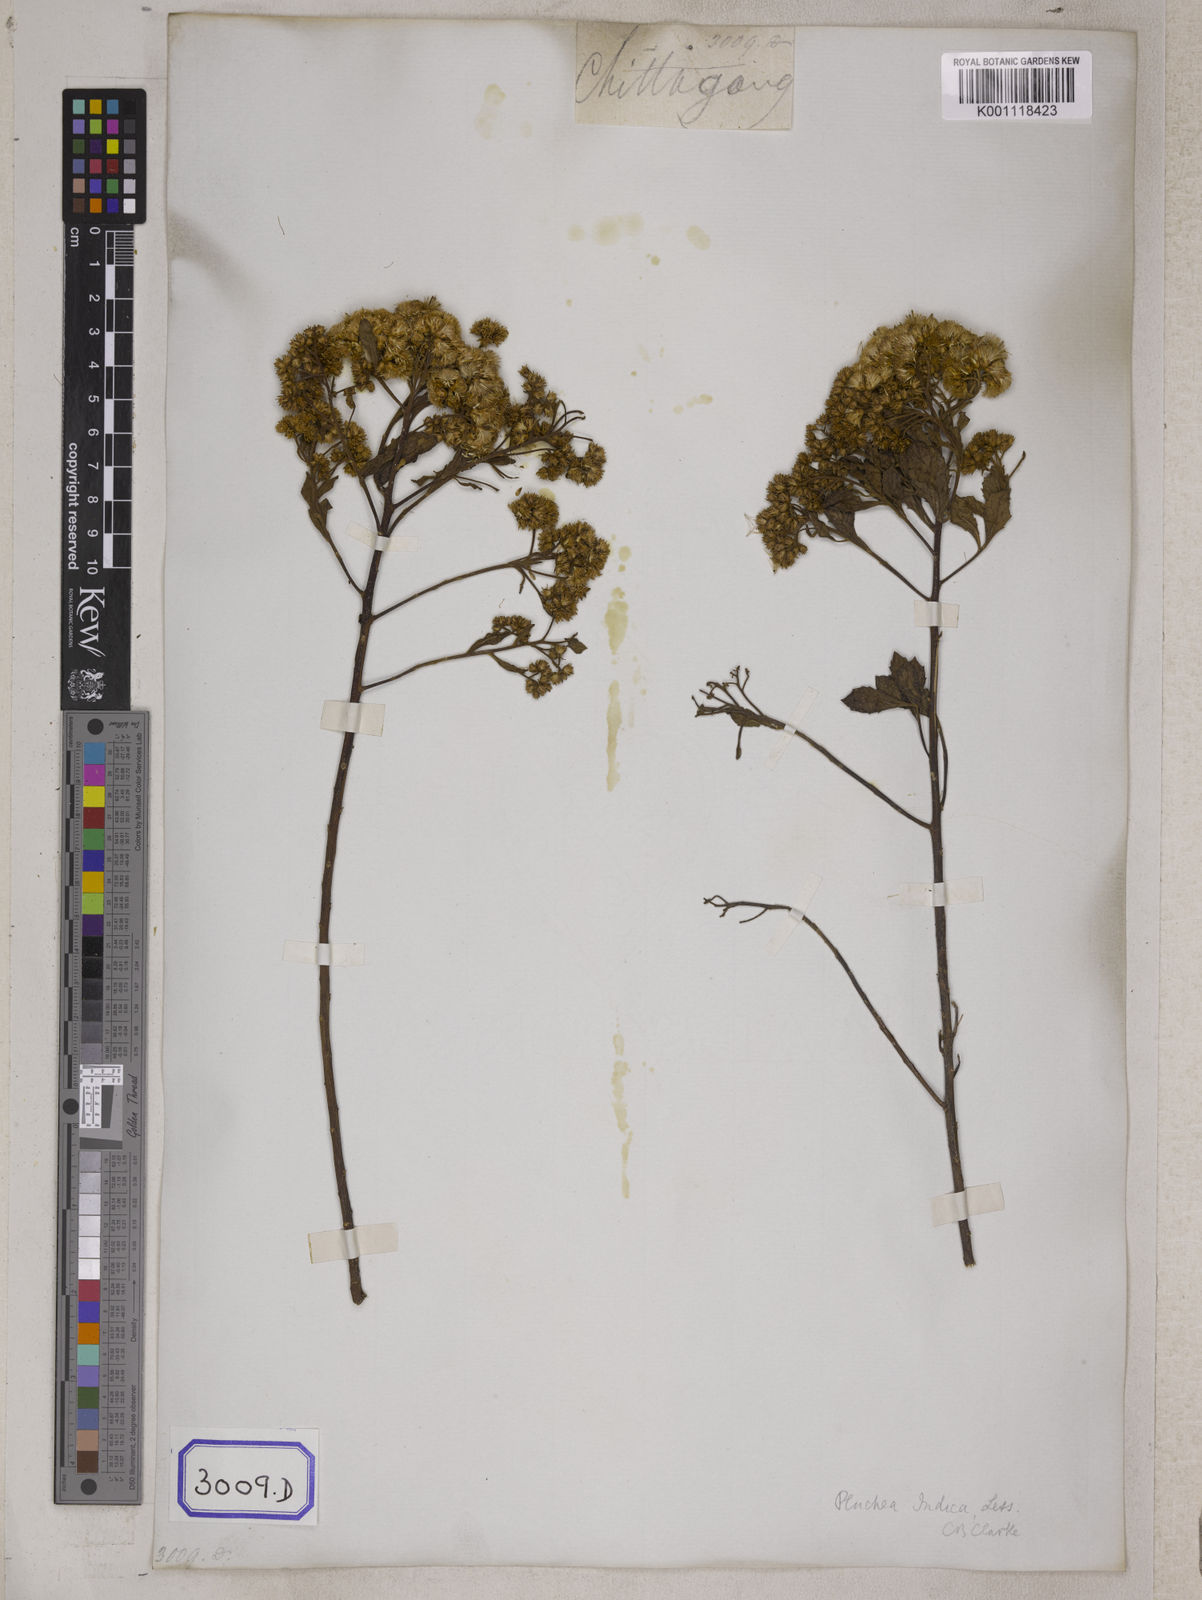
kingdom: Plantae
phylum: Tracheophyta
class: Magnoliopsida
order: Asterales
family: Asteraceae
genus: Pluchea
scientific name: Pluchea indica
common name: Indian fleabane
